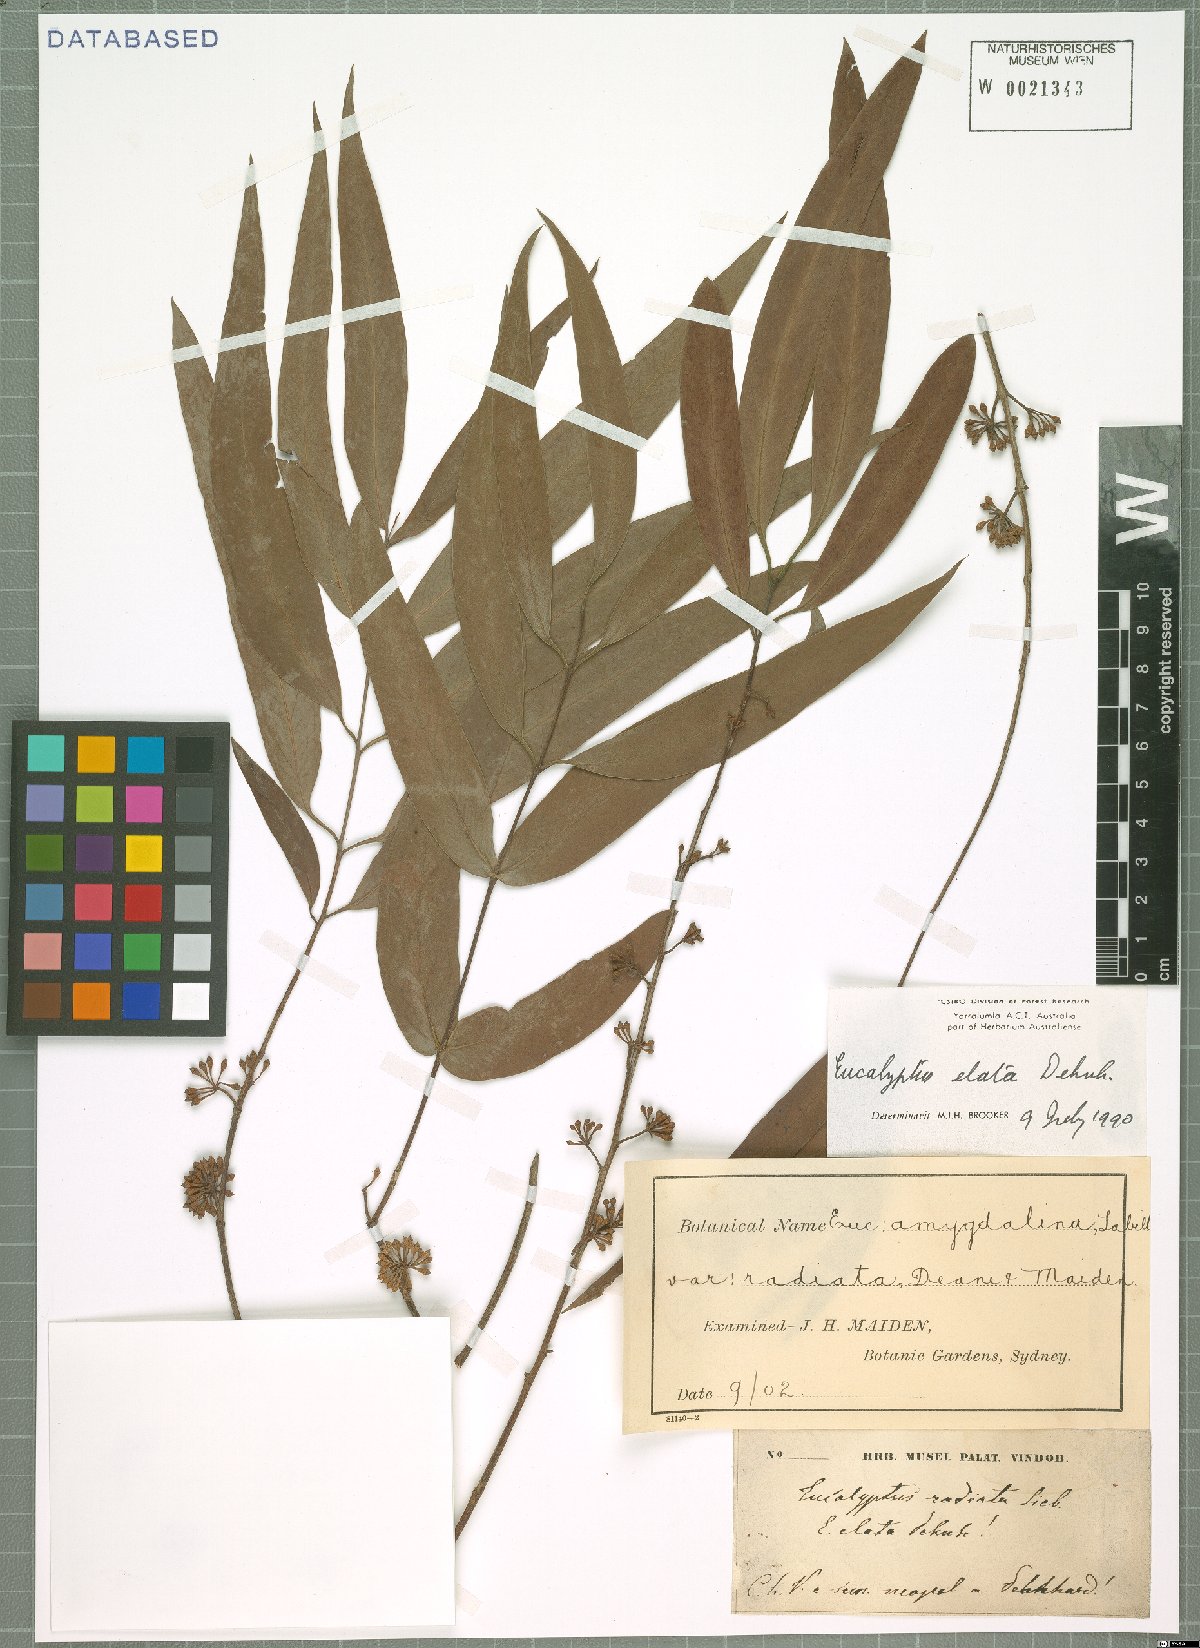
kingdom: Plantae
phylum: Tracheophyta
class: Magnoliopsida
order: Myrtales
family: Myrtaceae
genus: Eucalyptus
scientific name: Eucalyptus elata
